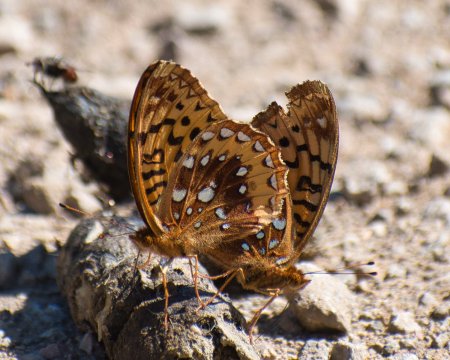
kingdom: Animalia
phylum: Arthropoda
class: Insecta
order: Lepidoptera
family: Nymphalidae
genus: Speyeria
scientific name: Speyeria cybele
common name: Great Spangled Fritillary
